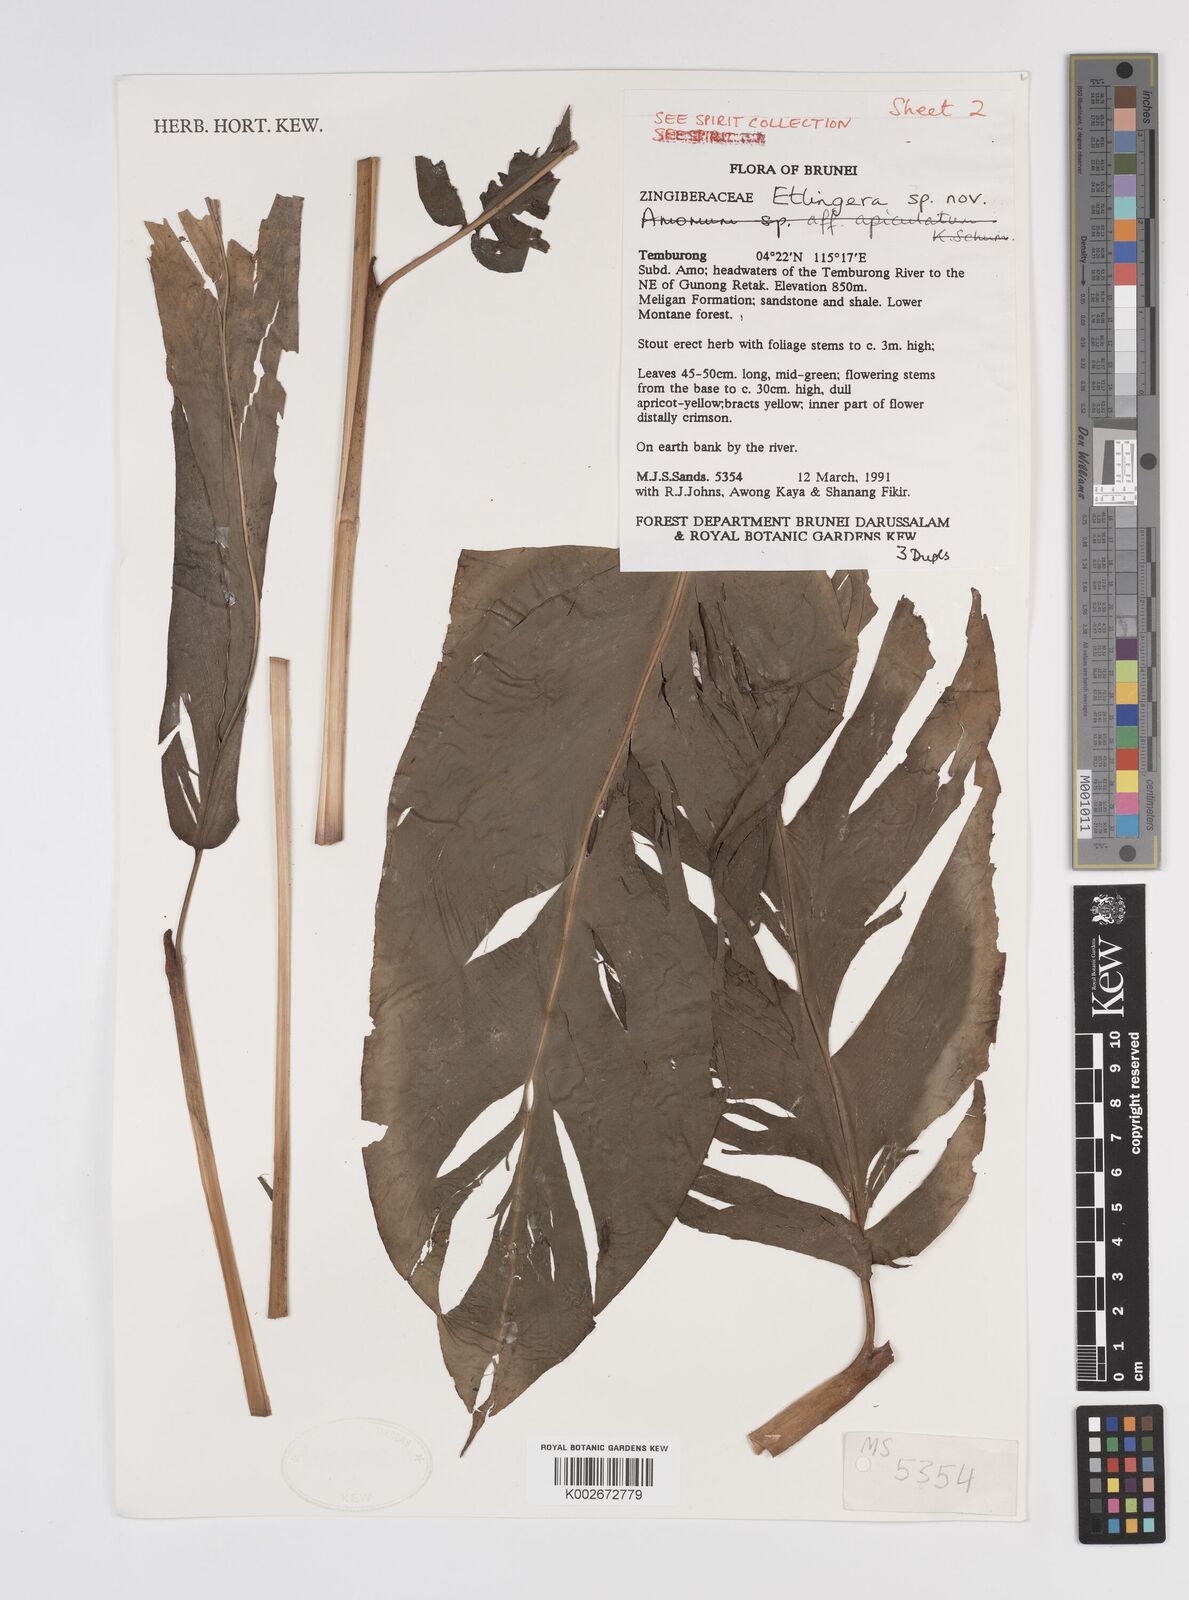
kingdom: Plantae
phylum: Tracheophyta
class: Liliopsida
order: Zingiberales
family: Zingiberaceae
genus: Etlingera
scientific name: Etlingera pubescens
